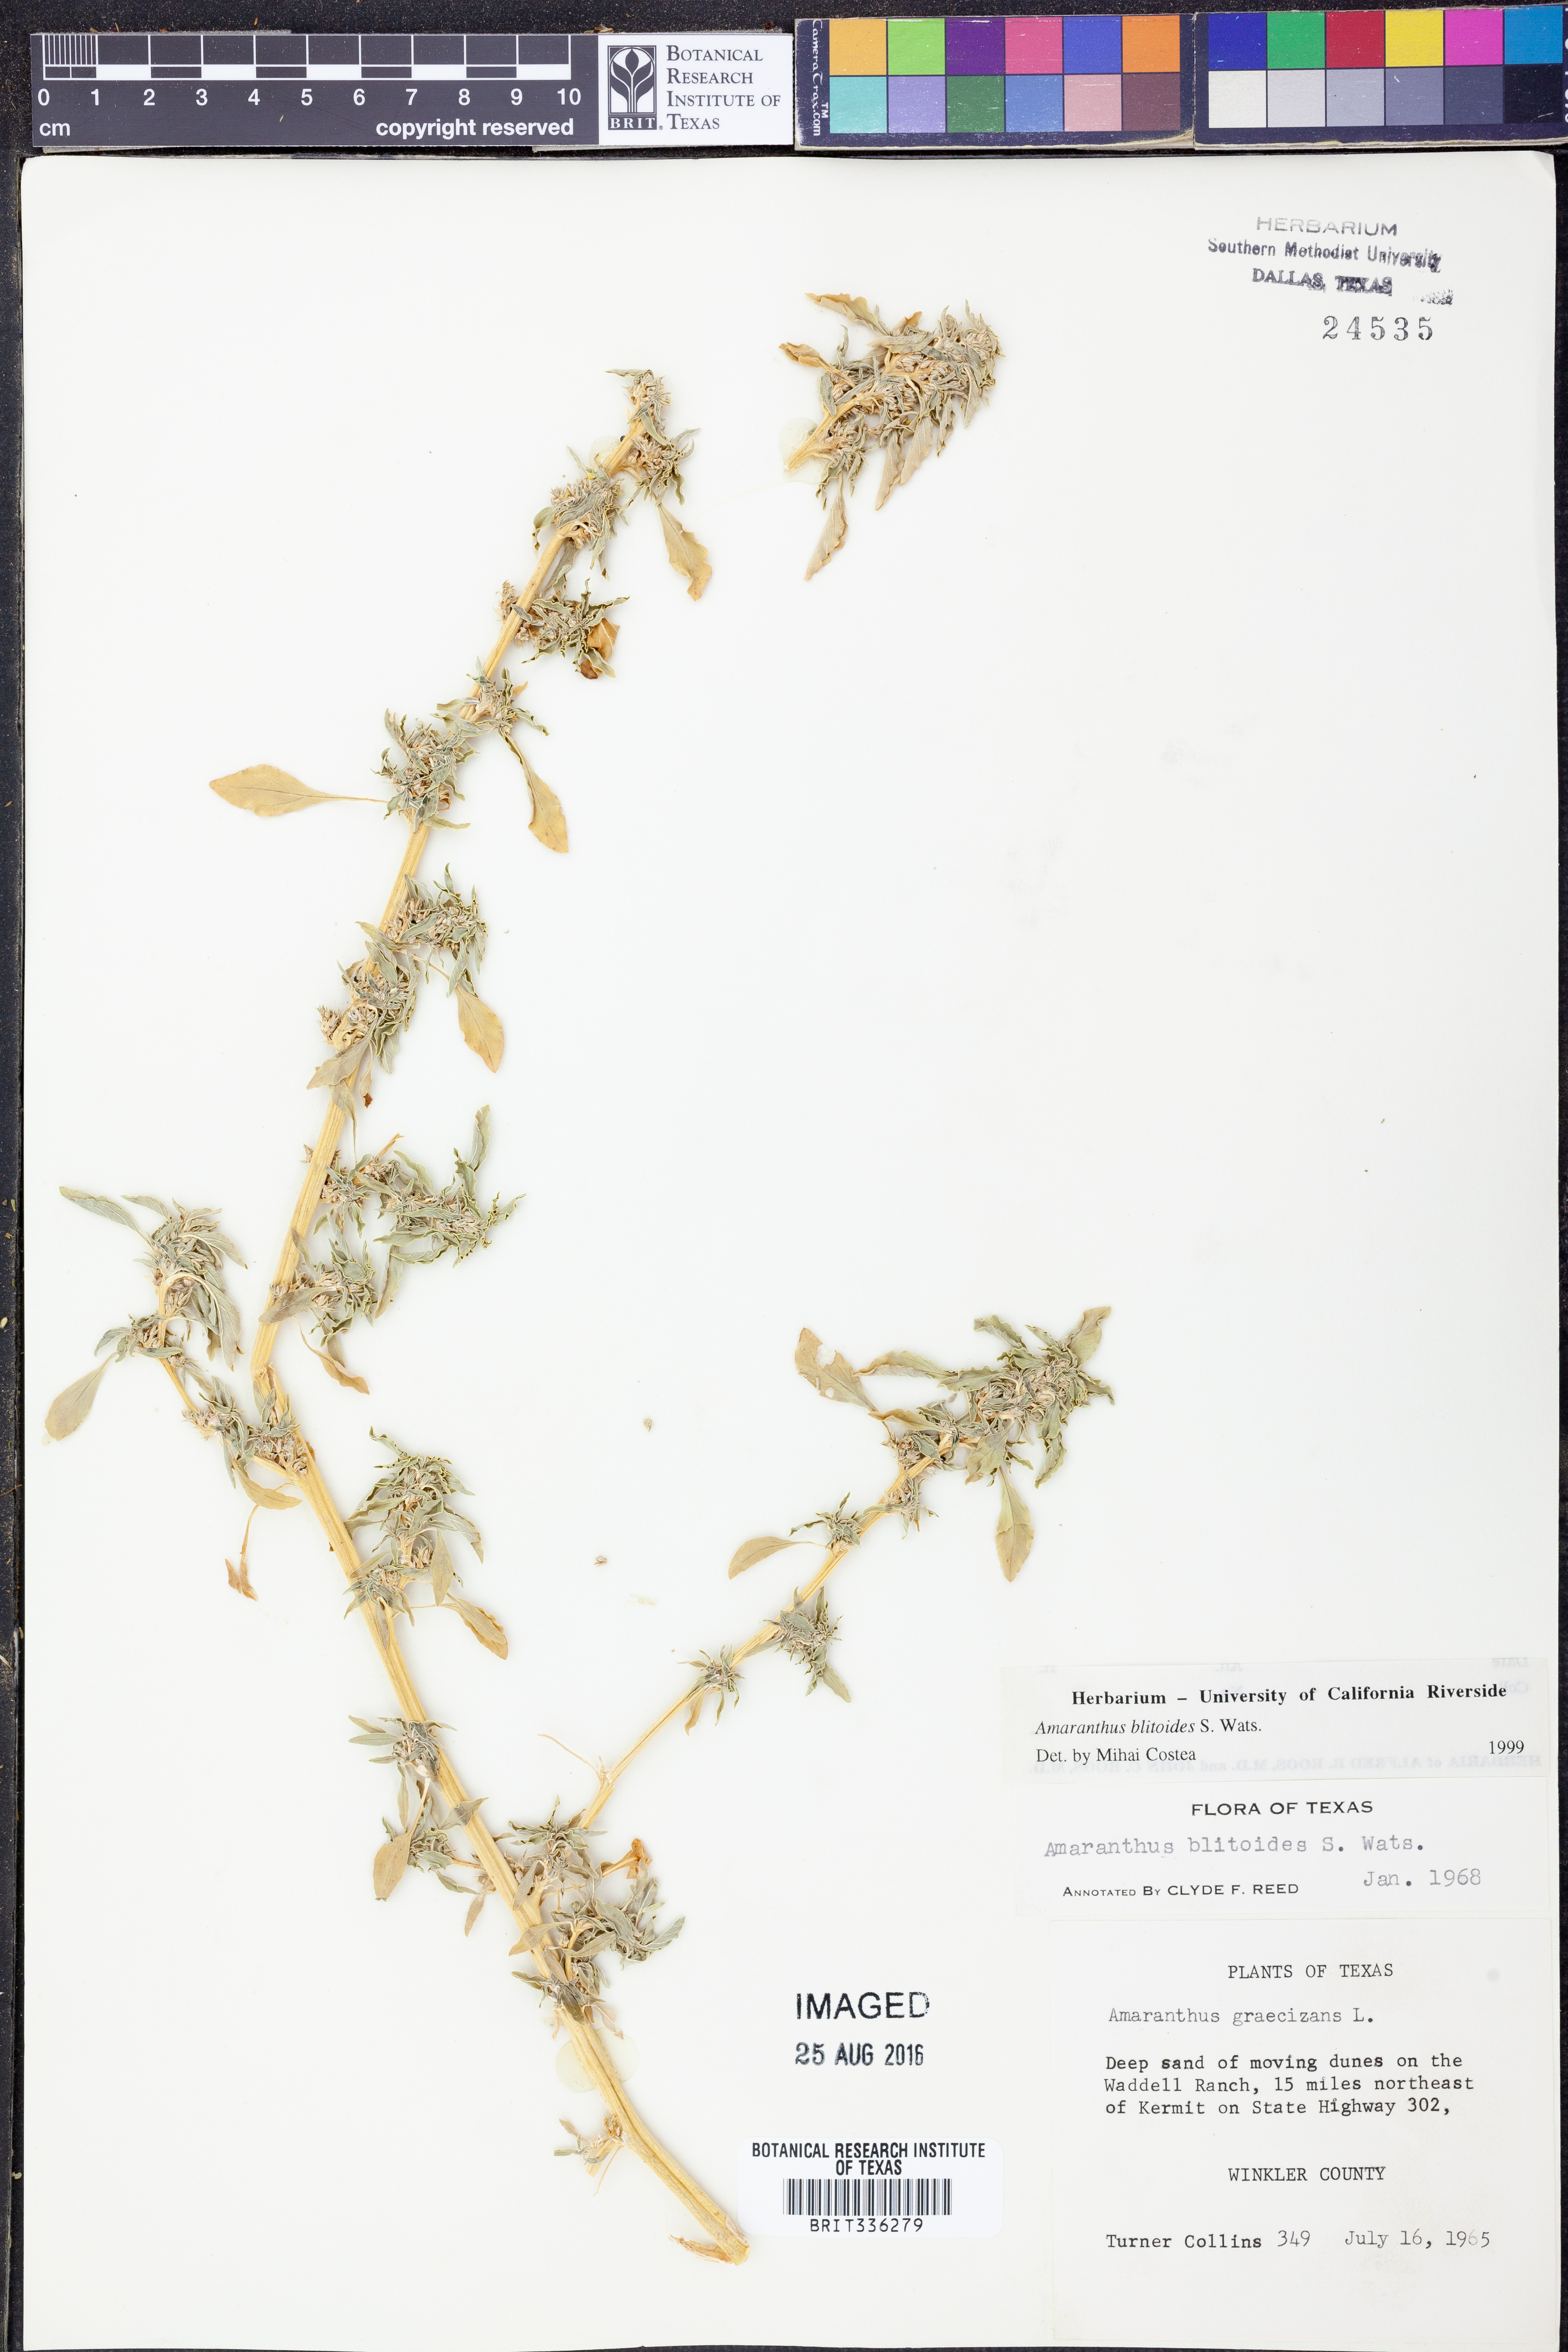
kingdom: Plantae
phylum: Tracheophyta
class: Magnoliopsida
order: Caryophyllales
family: Amaranthaceae
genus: Amaranthus
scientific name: Amaranthus blitoides
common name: Prostrate pigweed
